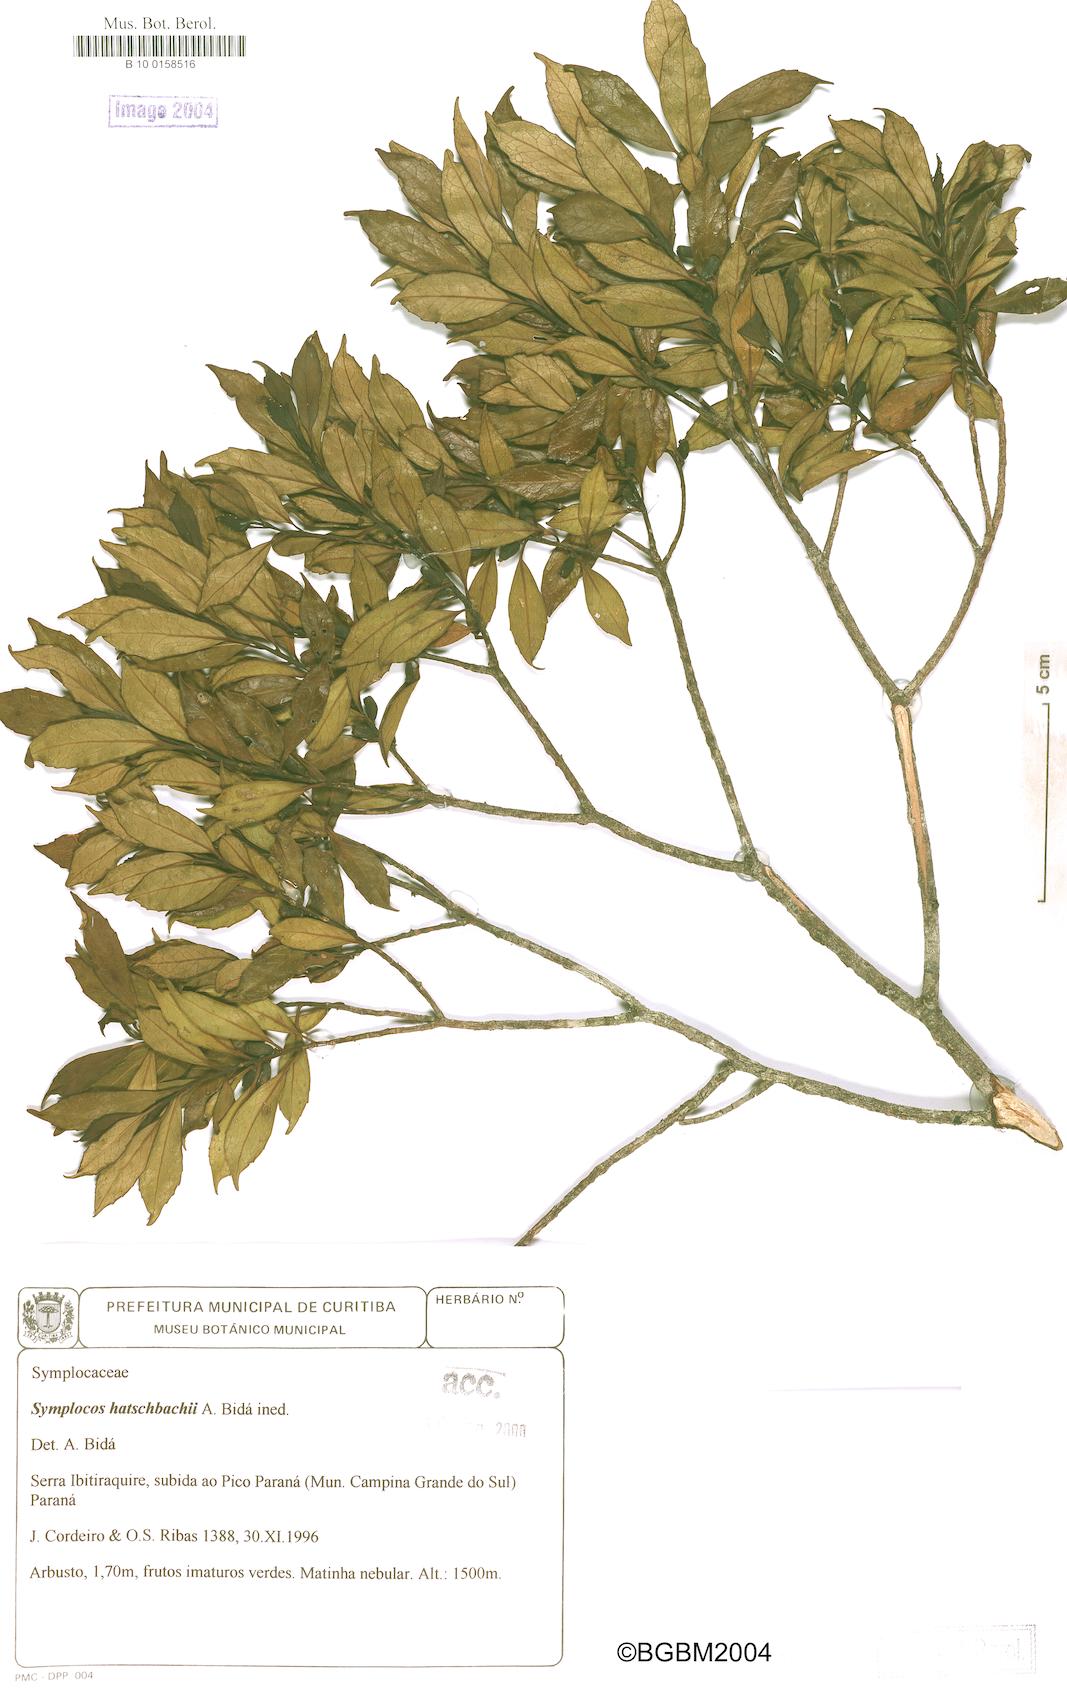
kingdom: Plantae
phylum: Tracheophyta
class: Magnoliopsida
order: Ericales
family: Symplocaceae
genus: Symplocos
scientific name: Symplocos corymboclados
